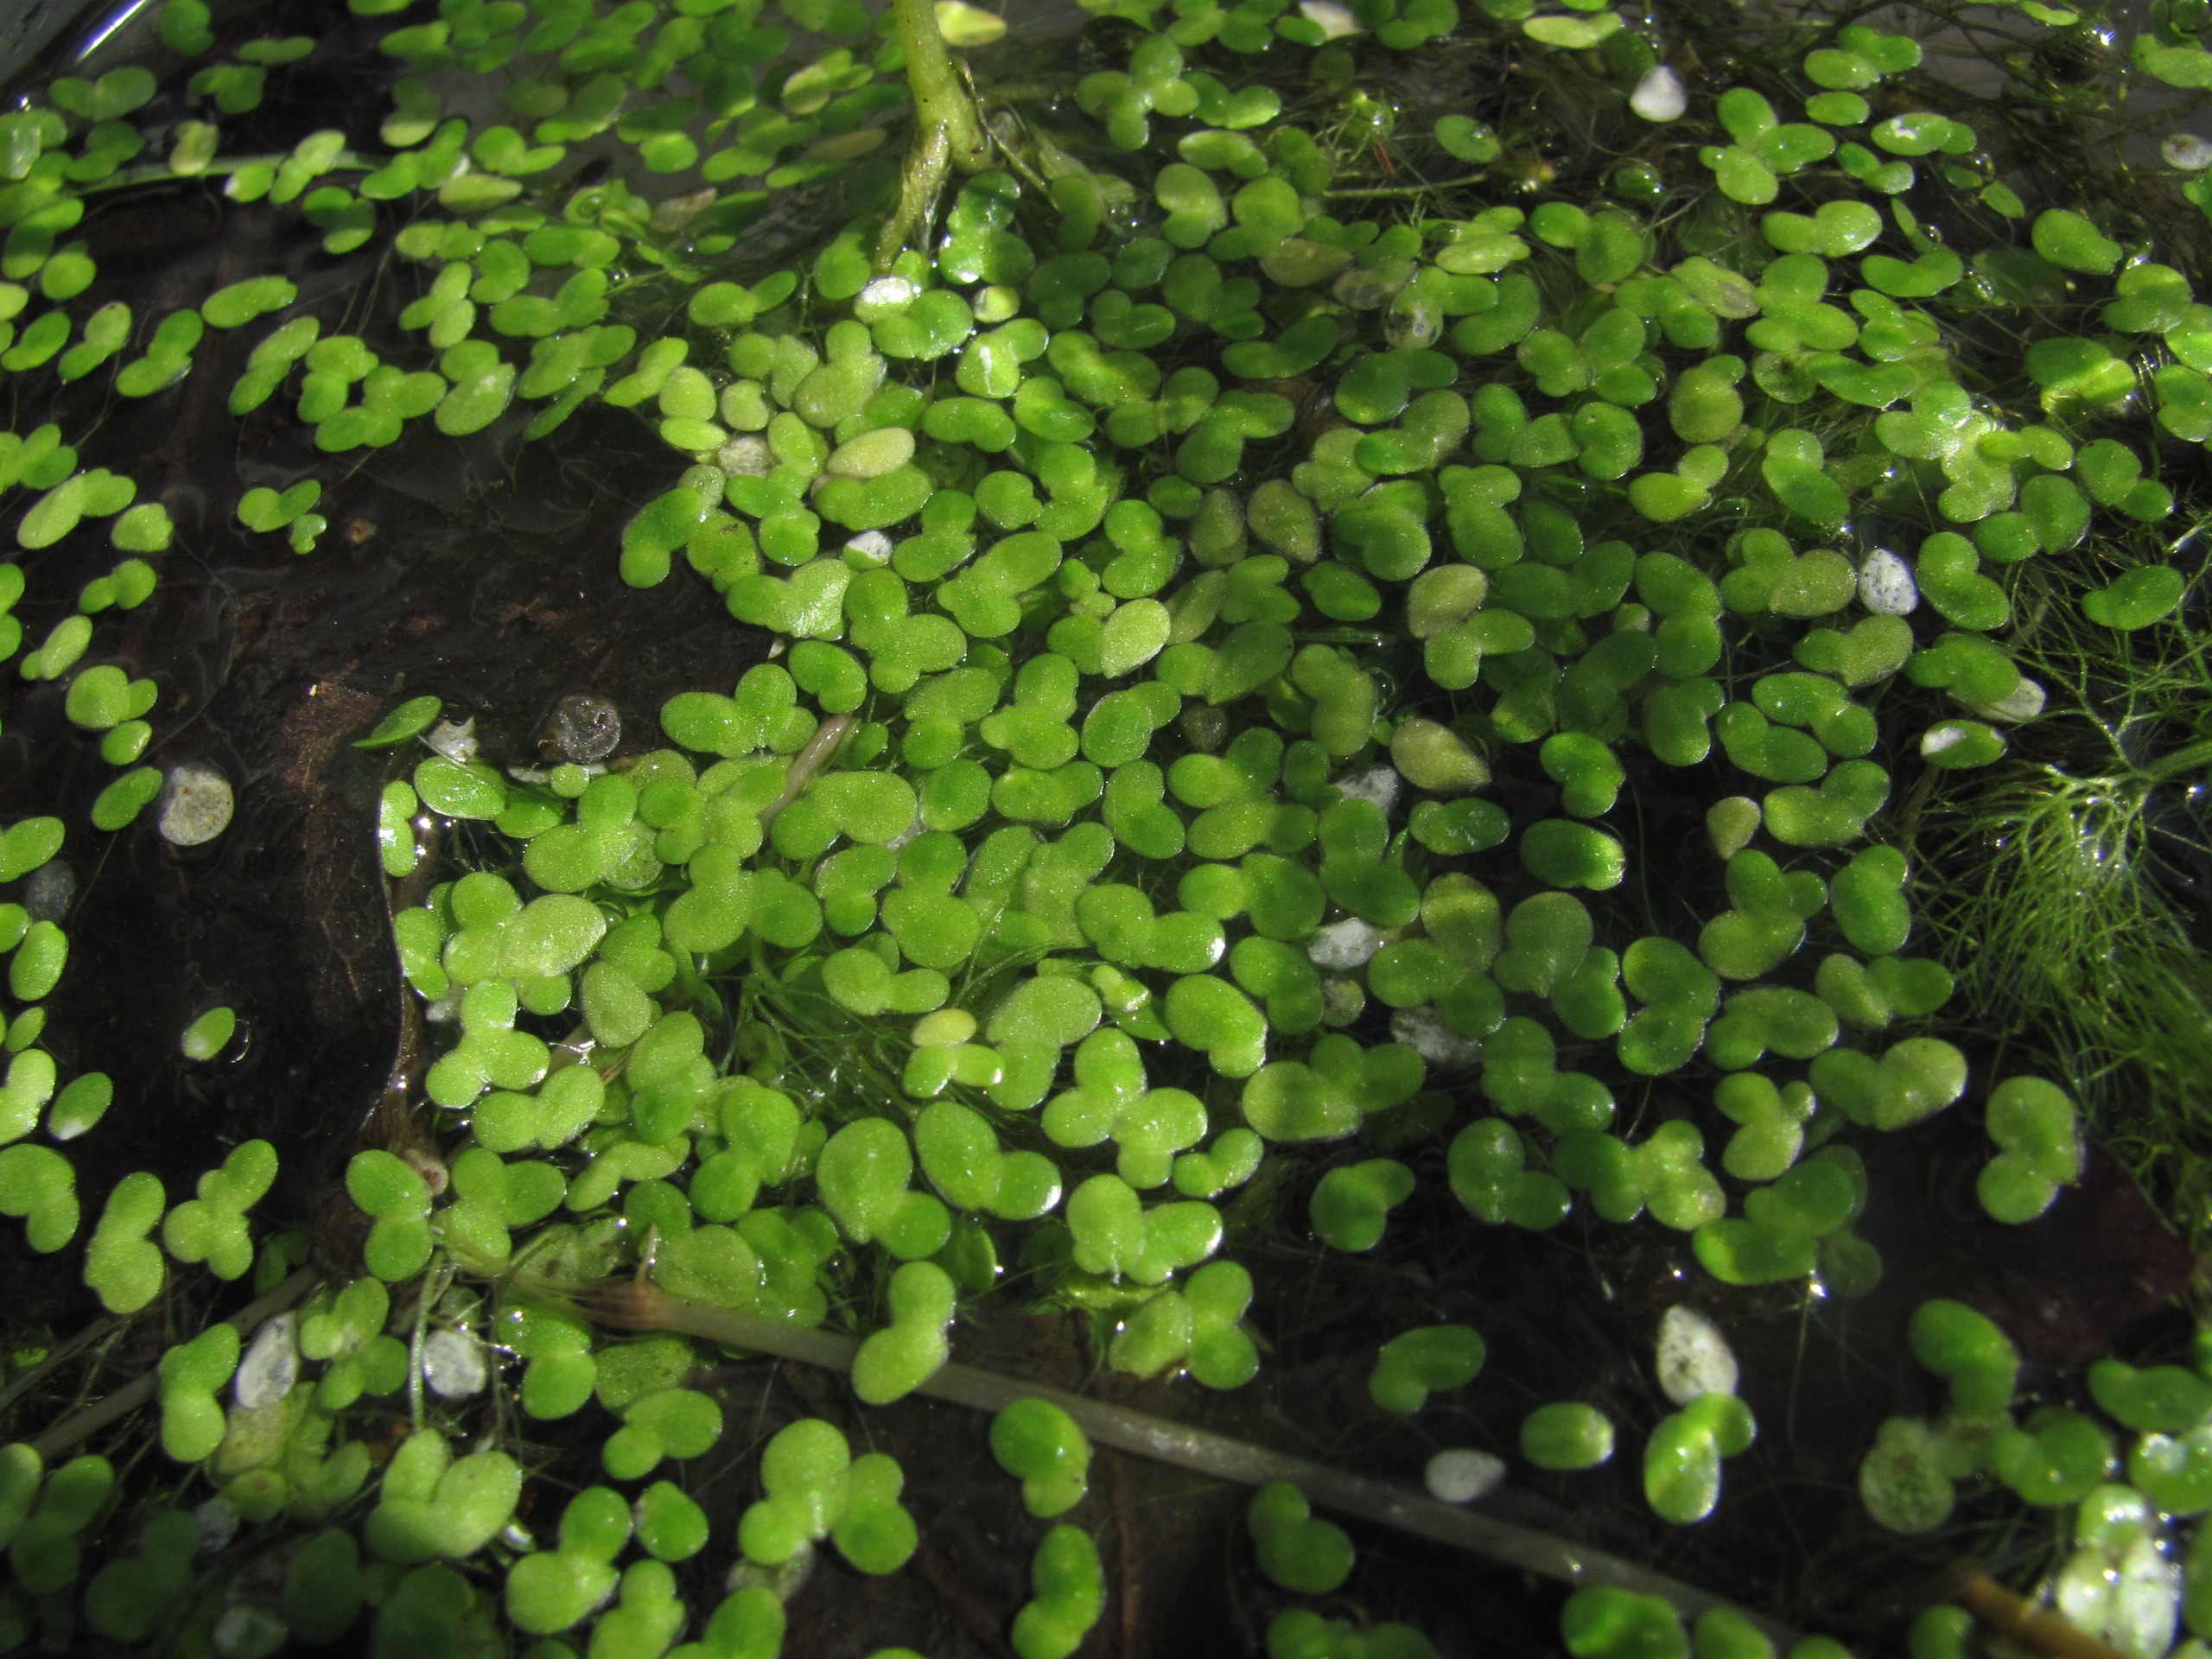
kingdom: Plantae
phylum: Tracheophyta
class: Liliopsida
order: Alismatales
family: Araceae
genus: Lemna
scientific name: Lemna minor
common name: Liden andemad
